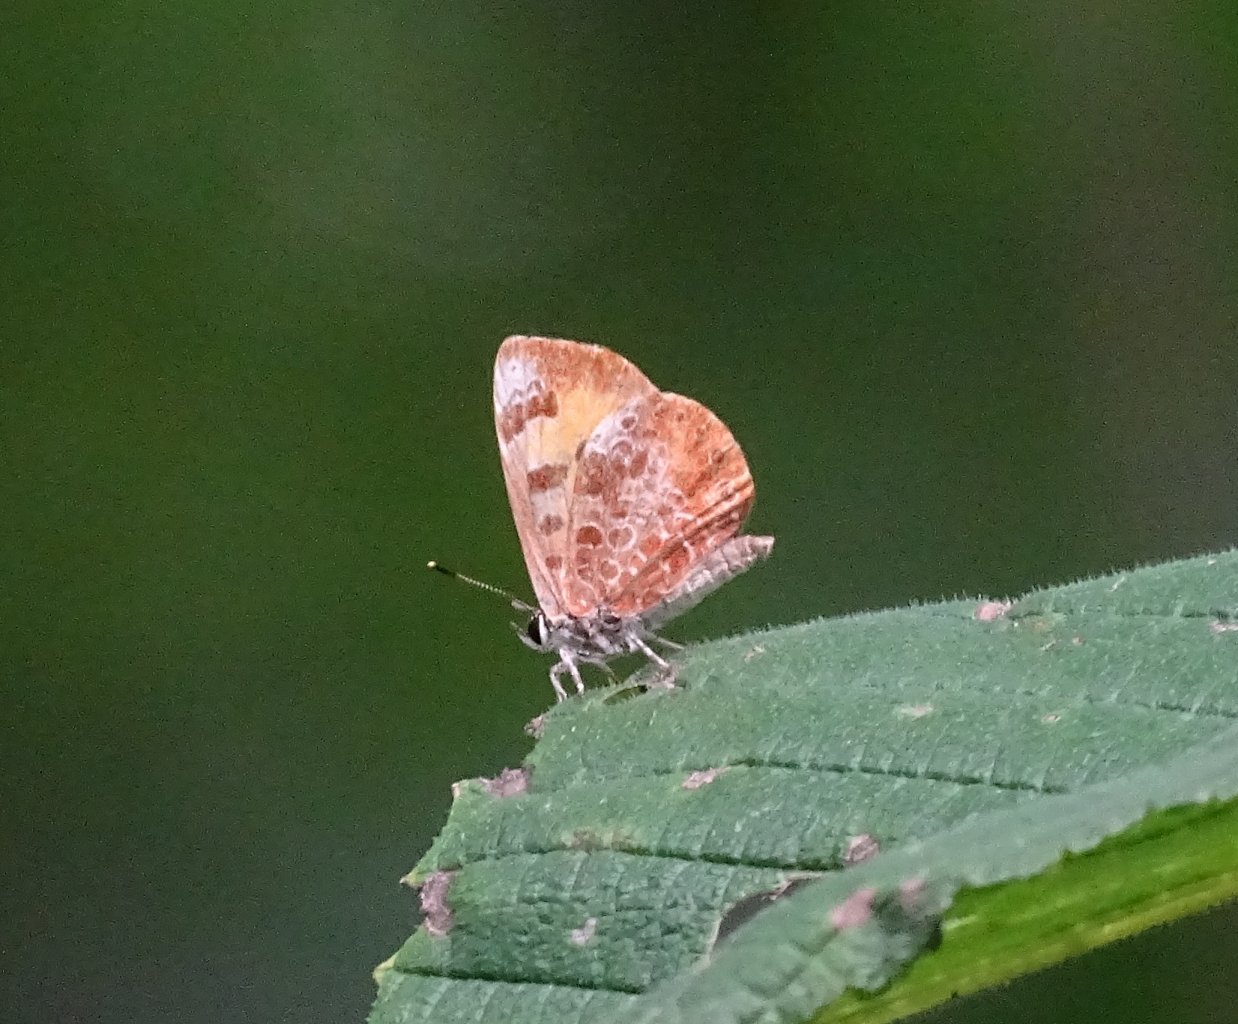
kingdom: Animalia
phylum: Arthropoda
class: Insecta
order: Lepidoptera
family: Lycaenidae
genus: Feniseca
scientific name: Feniseca tarquinius
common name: Harvester
